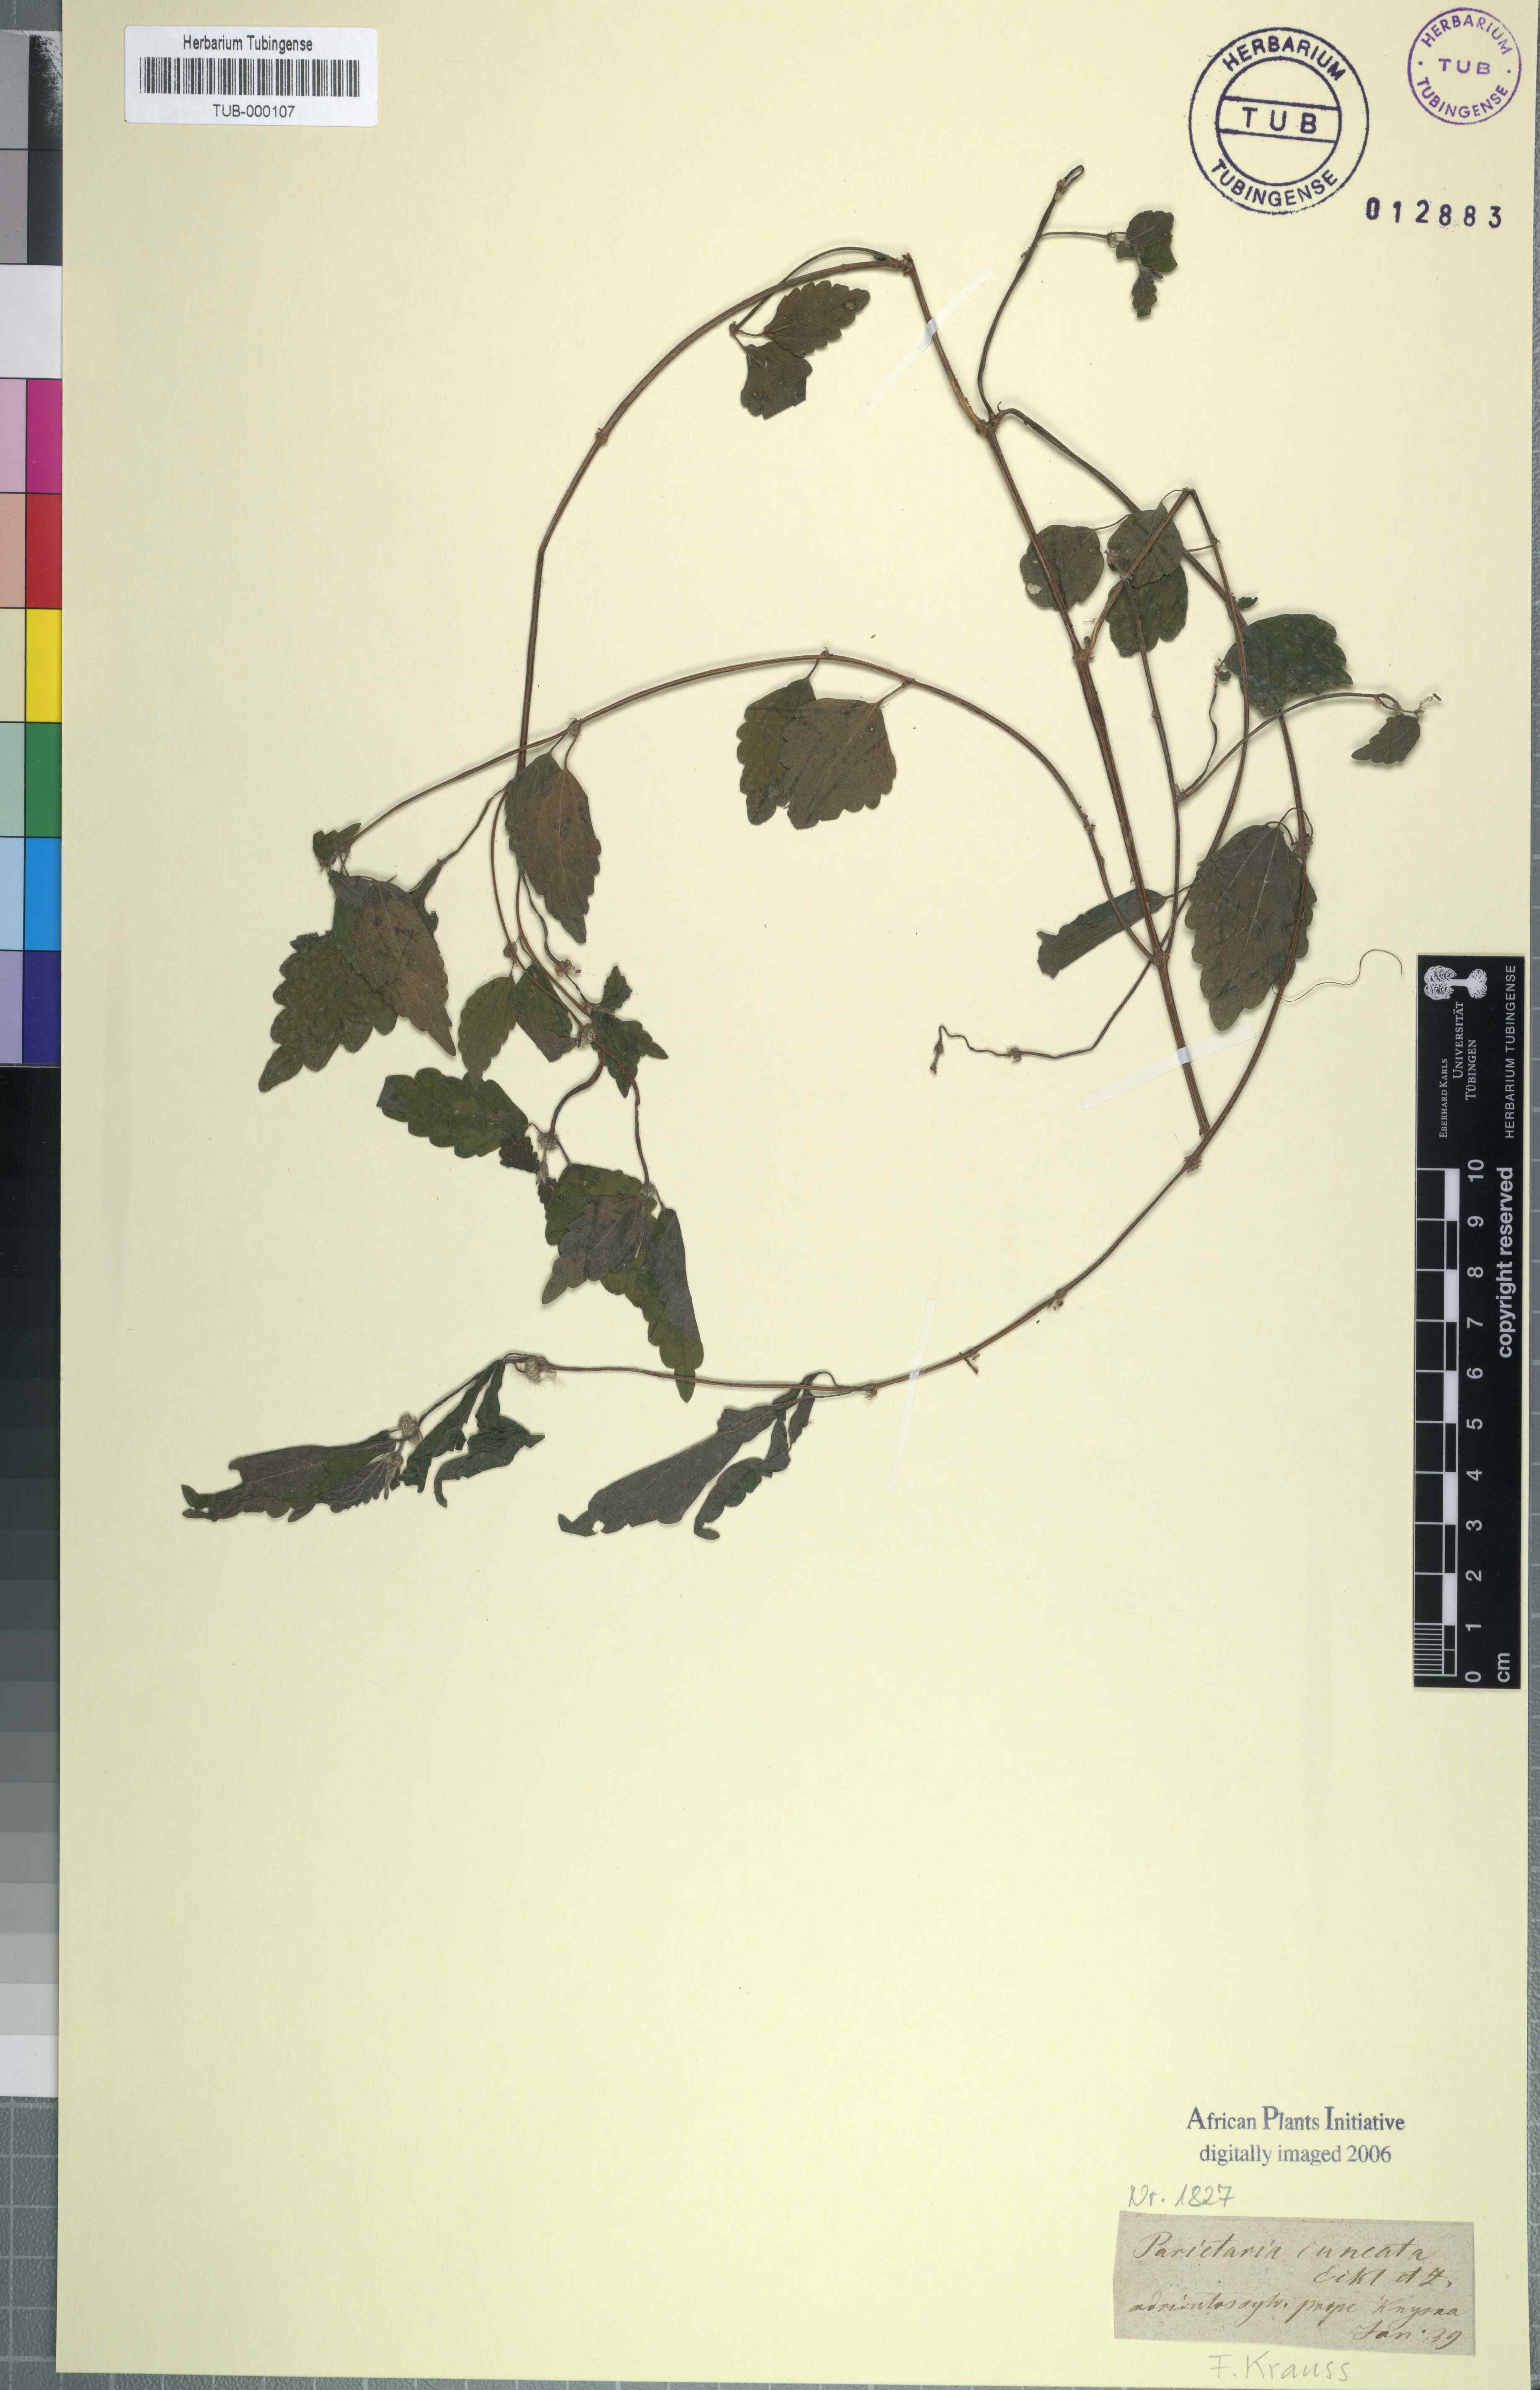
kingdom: Plantae
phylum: Tracheophyta
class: Magnoliopsida
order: Rosales
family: Urticaceae
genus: Droguetia
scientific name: Droguetia ambigua
